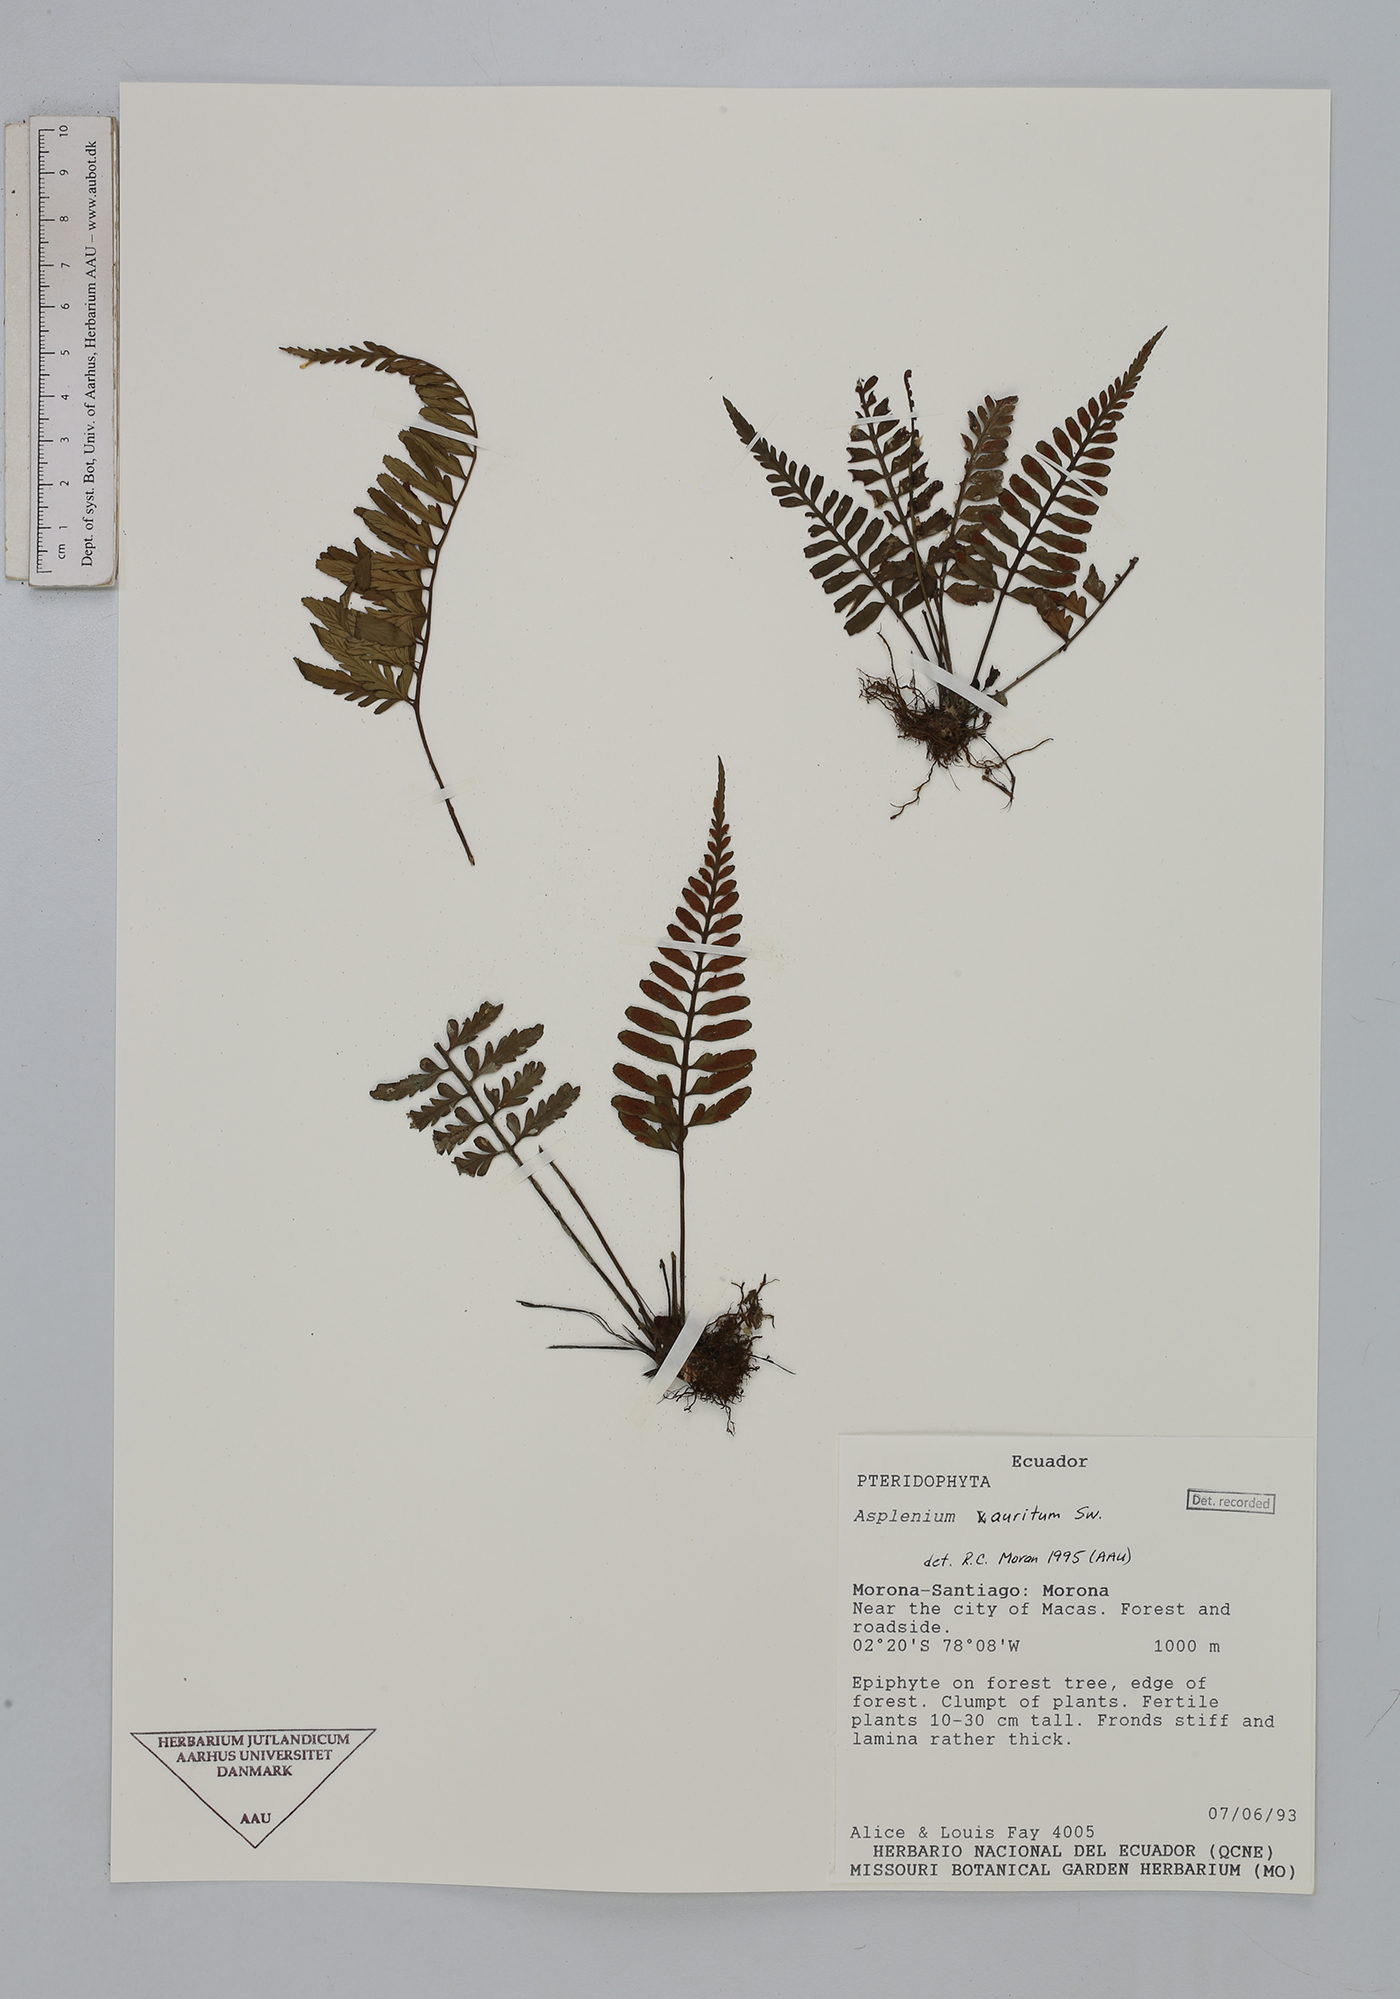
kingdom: Plantae
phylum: Tracheophyta
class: Polypodiopsida
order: Polypodiales
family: Aspleniaceae
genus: Asplenium
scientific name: Asplenium auritum
